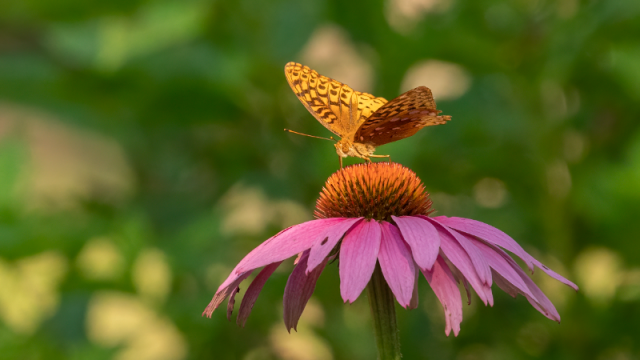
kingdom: Animalia
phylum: Arthropoda
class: Insecta
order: Lepidoptera
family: Nymphalidae
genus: Speyeria
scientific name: Speyeria cybele
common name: Great Spangled Fritillary
